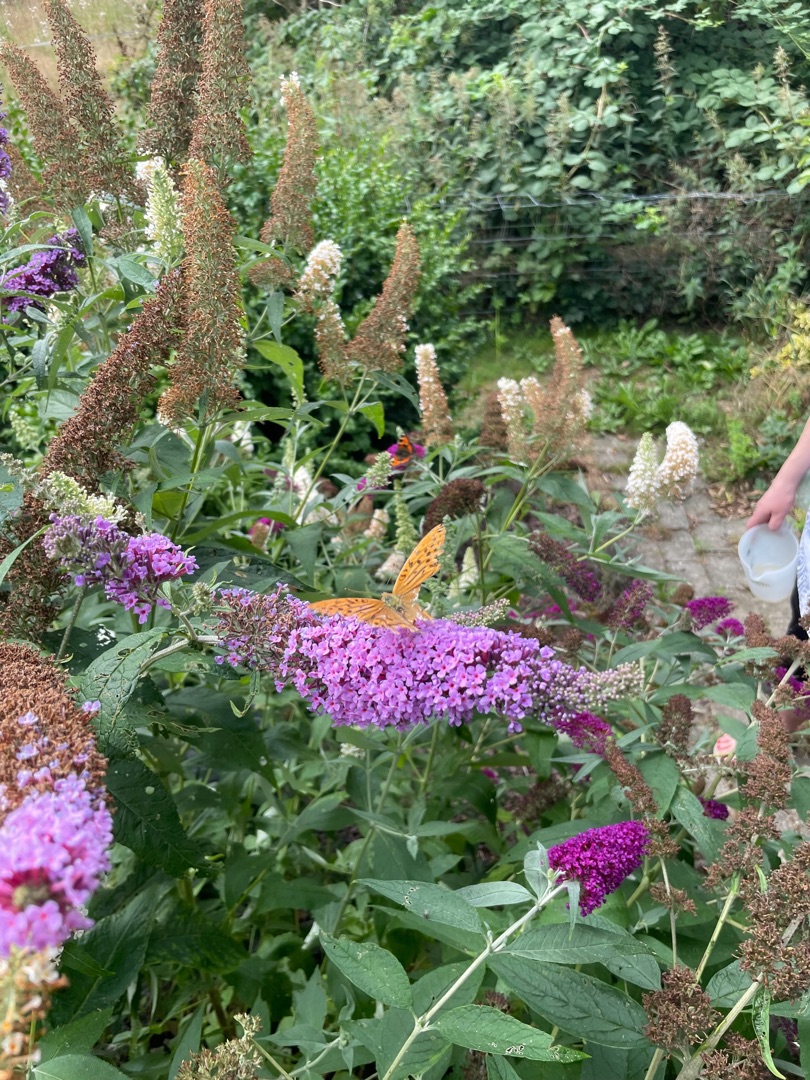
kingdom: Animalia
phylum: Arthropoda
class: Insecta
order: Lepidoptera
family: Nymphalidae
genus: Argynnis
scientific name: Argynnis paphia
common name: Kejserkåbe
